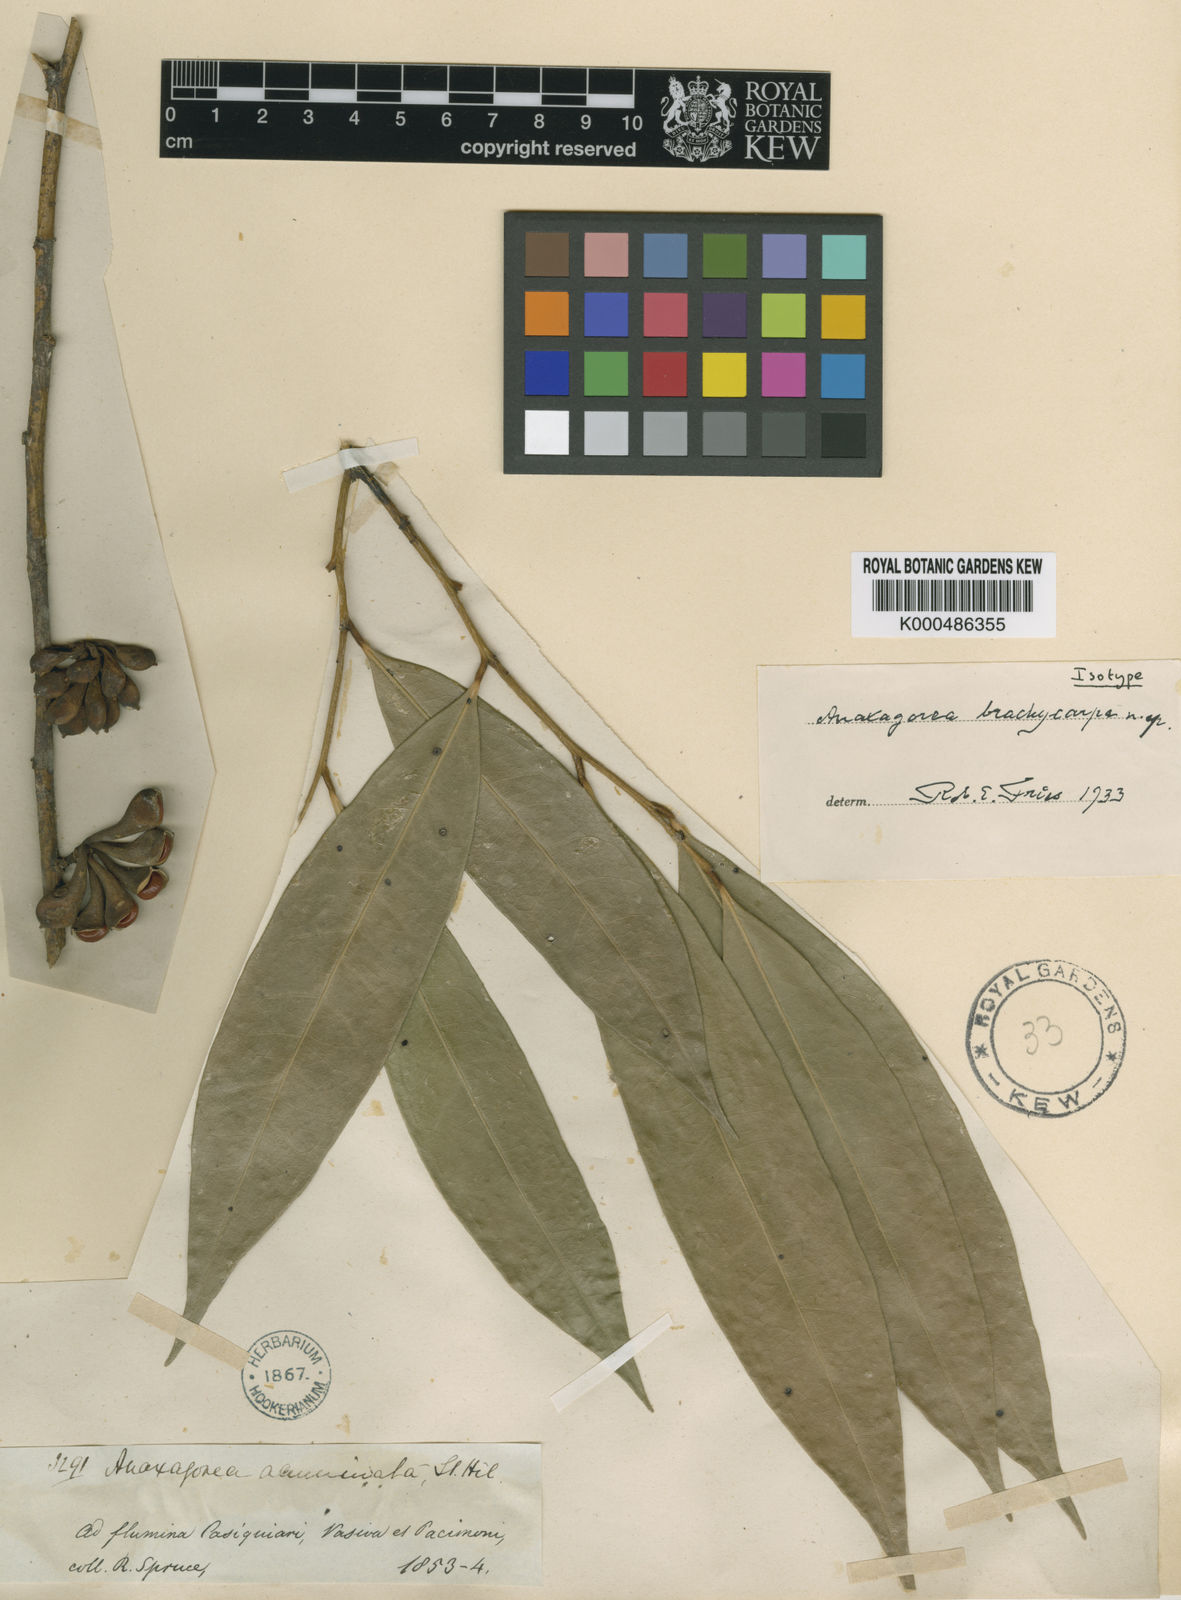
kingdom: Plantae
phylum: Tracheophyta
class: Magnoliopsida
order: Magnoliales
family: Annonaceae
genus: Anaxagorea
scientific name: Anaxagorea brachycarpa
